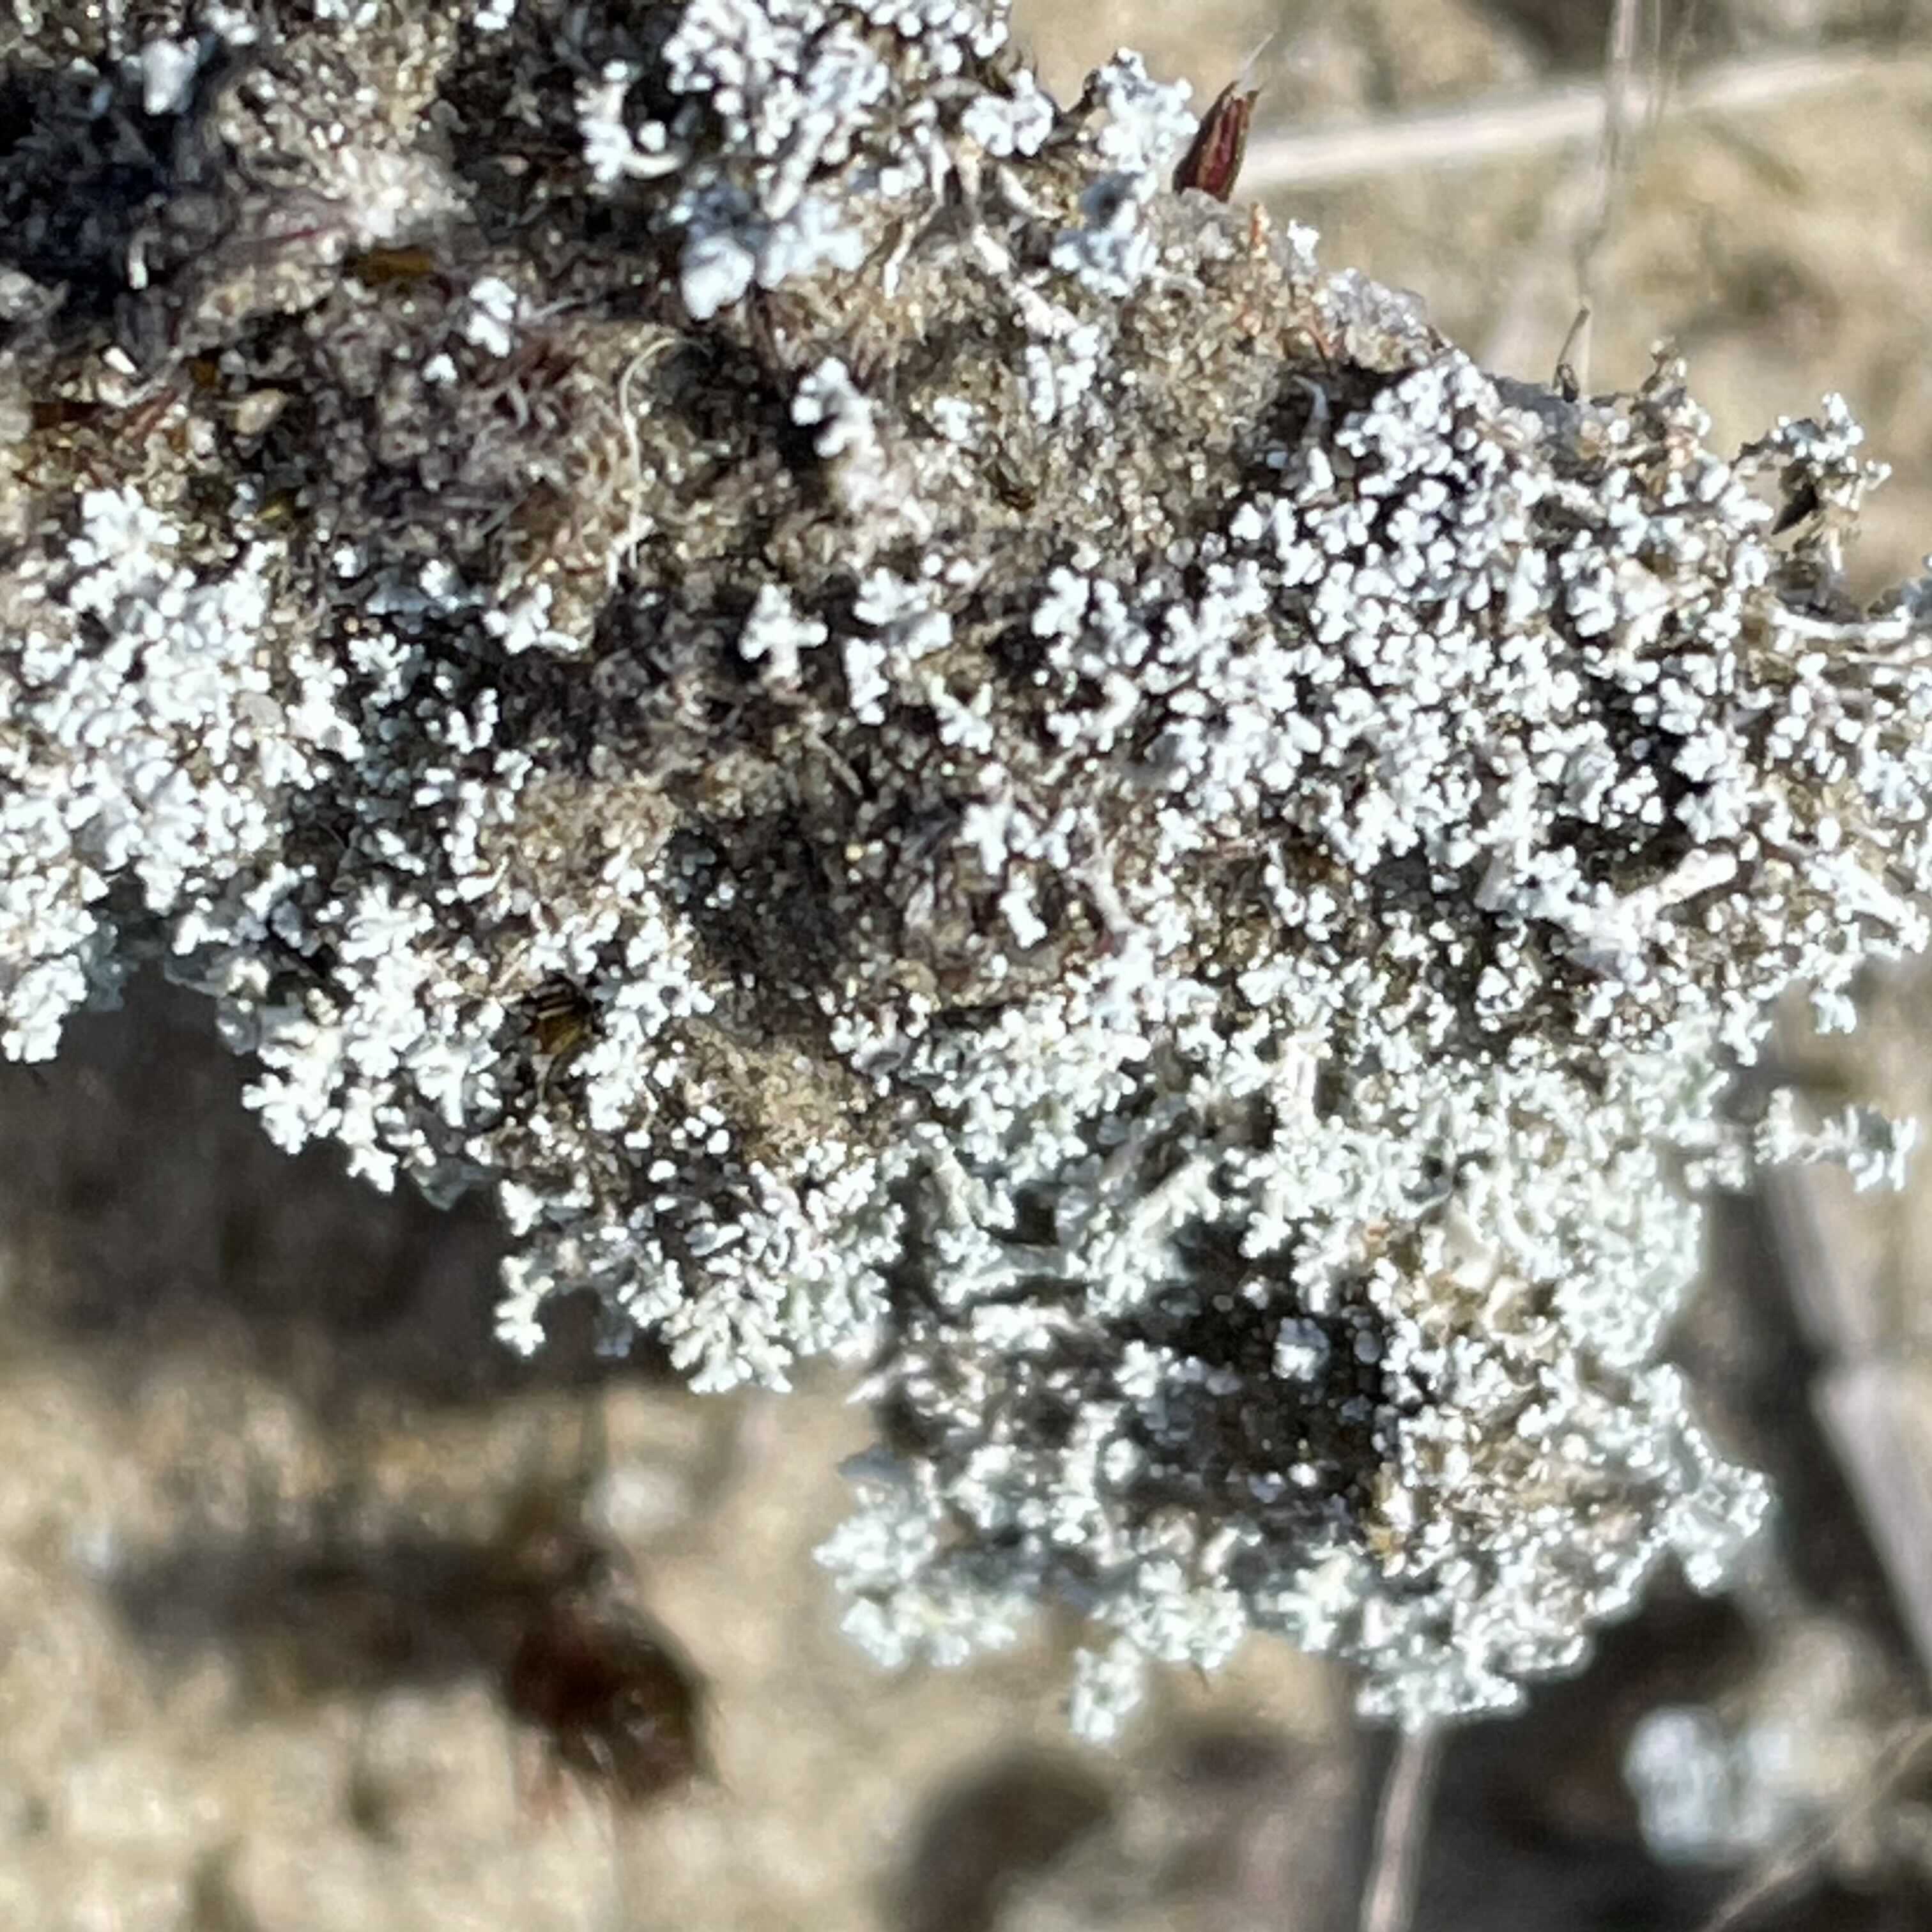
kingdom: Fungi
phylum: Ascomycota
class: Lecanoromycetes
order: Lecanorales
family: Stereocaulaceae
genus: Stereocaulon
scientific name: Stereocaulon condensatum
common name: lav korallav
